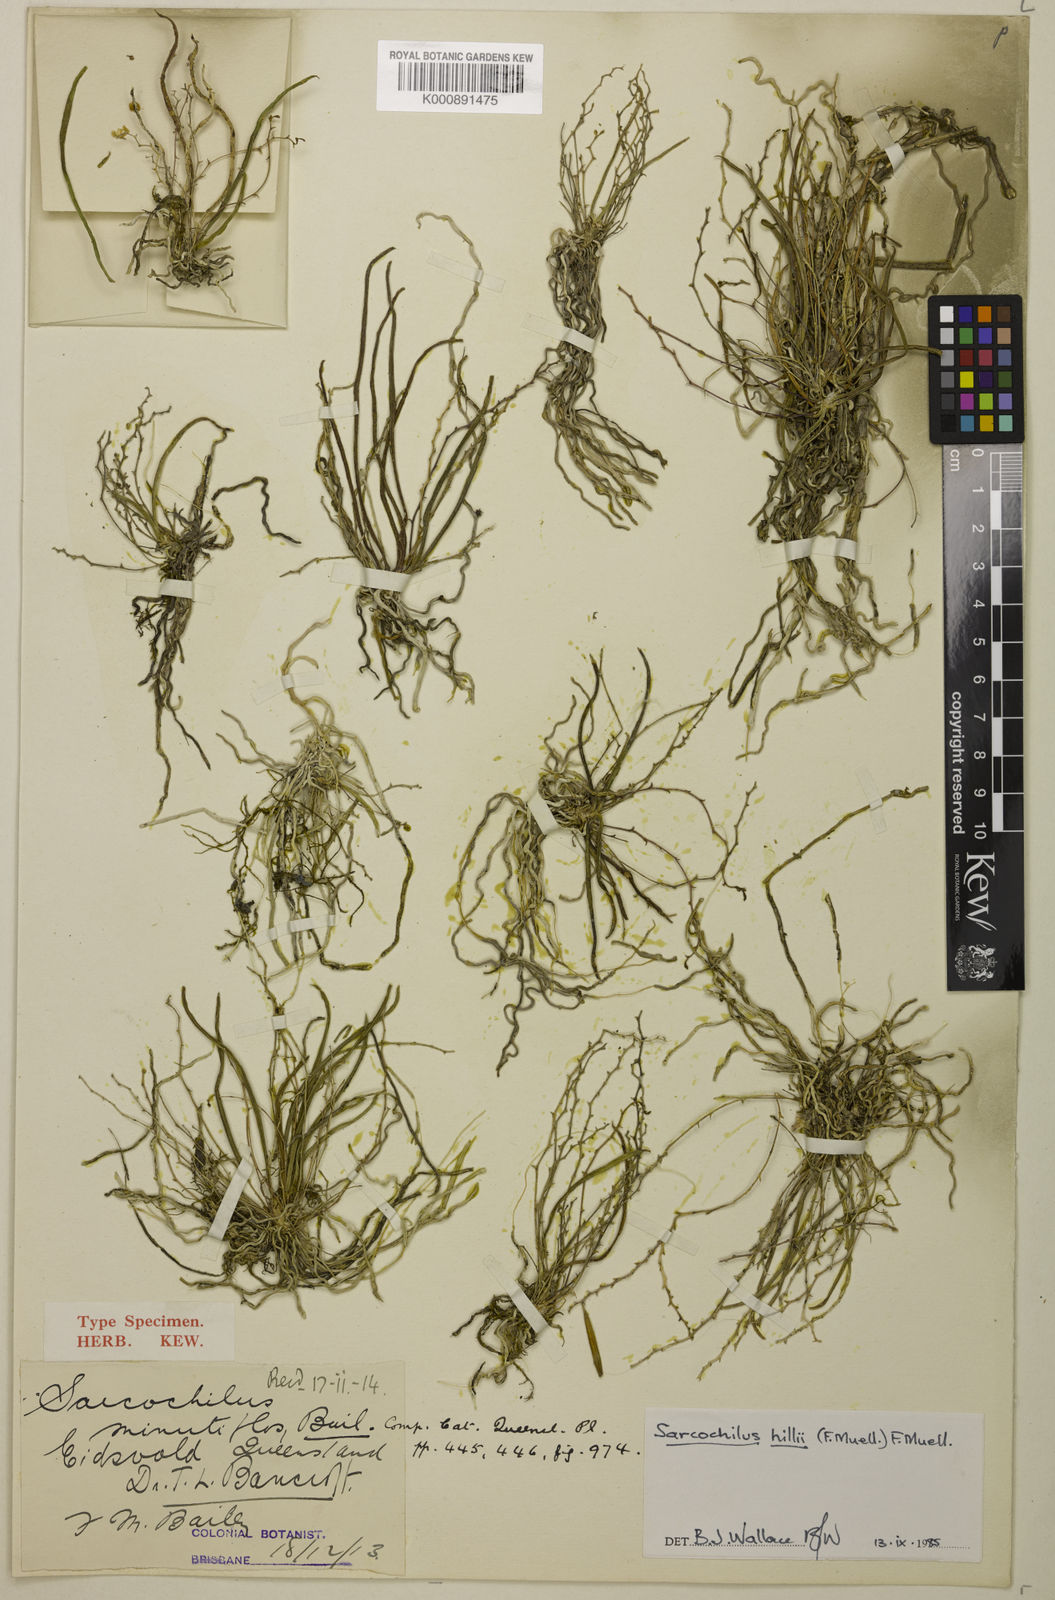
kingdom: Plantae
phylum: Tracheophyta
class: Liliopsida
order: Asparagales
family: Orchidaceae
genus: Grosourdya
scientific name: Grosourdya minutiflora
